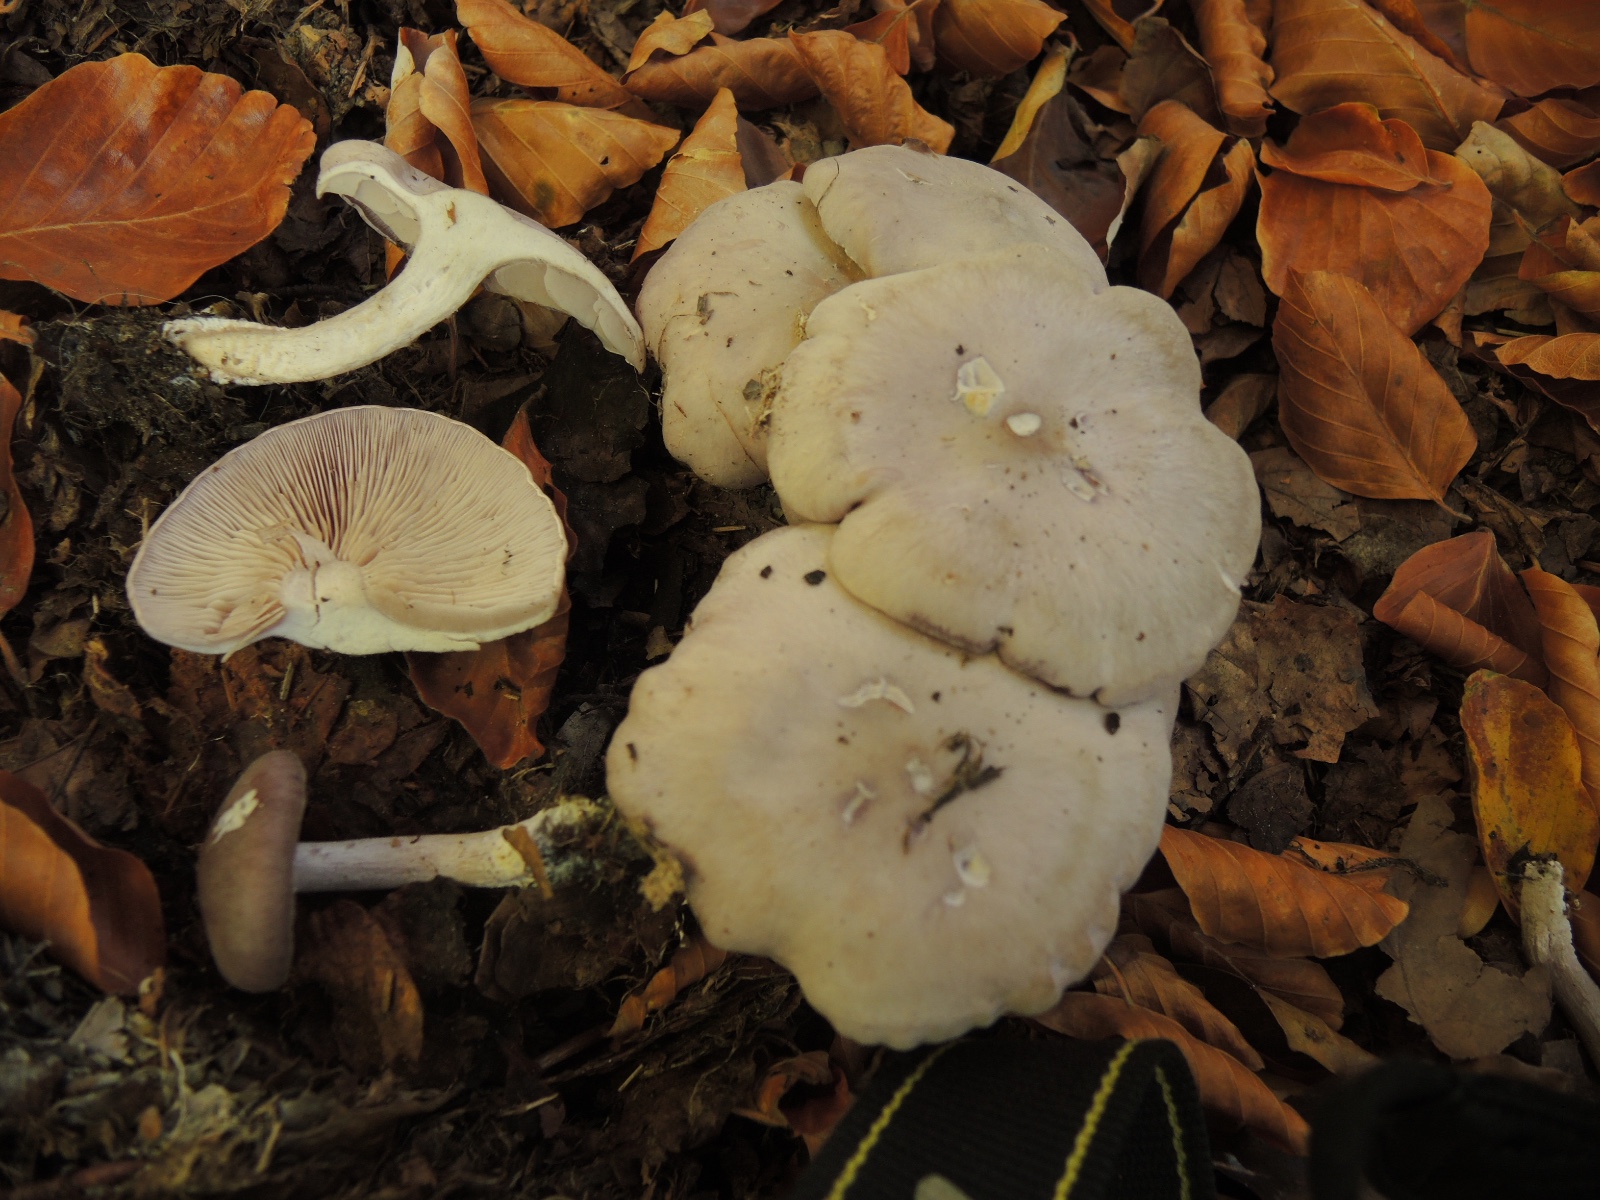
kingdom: Fungi
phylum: Basidiomycota
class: Agaricomycetes
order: Agaricales
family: Tricholomataceae
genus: Lepista
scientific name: Lepista nuda
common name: violet hekseringshat
